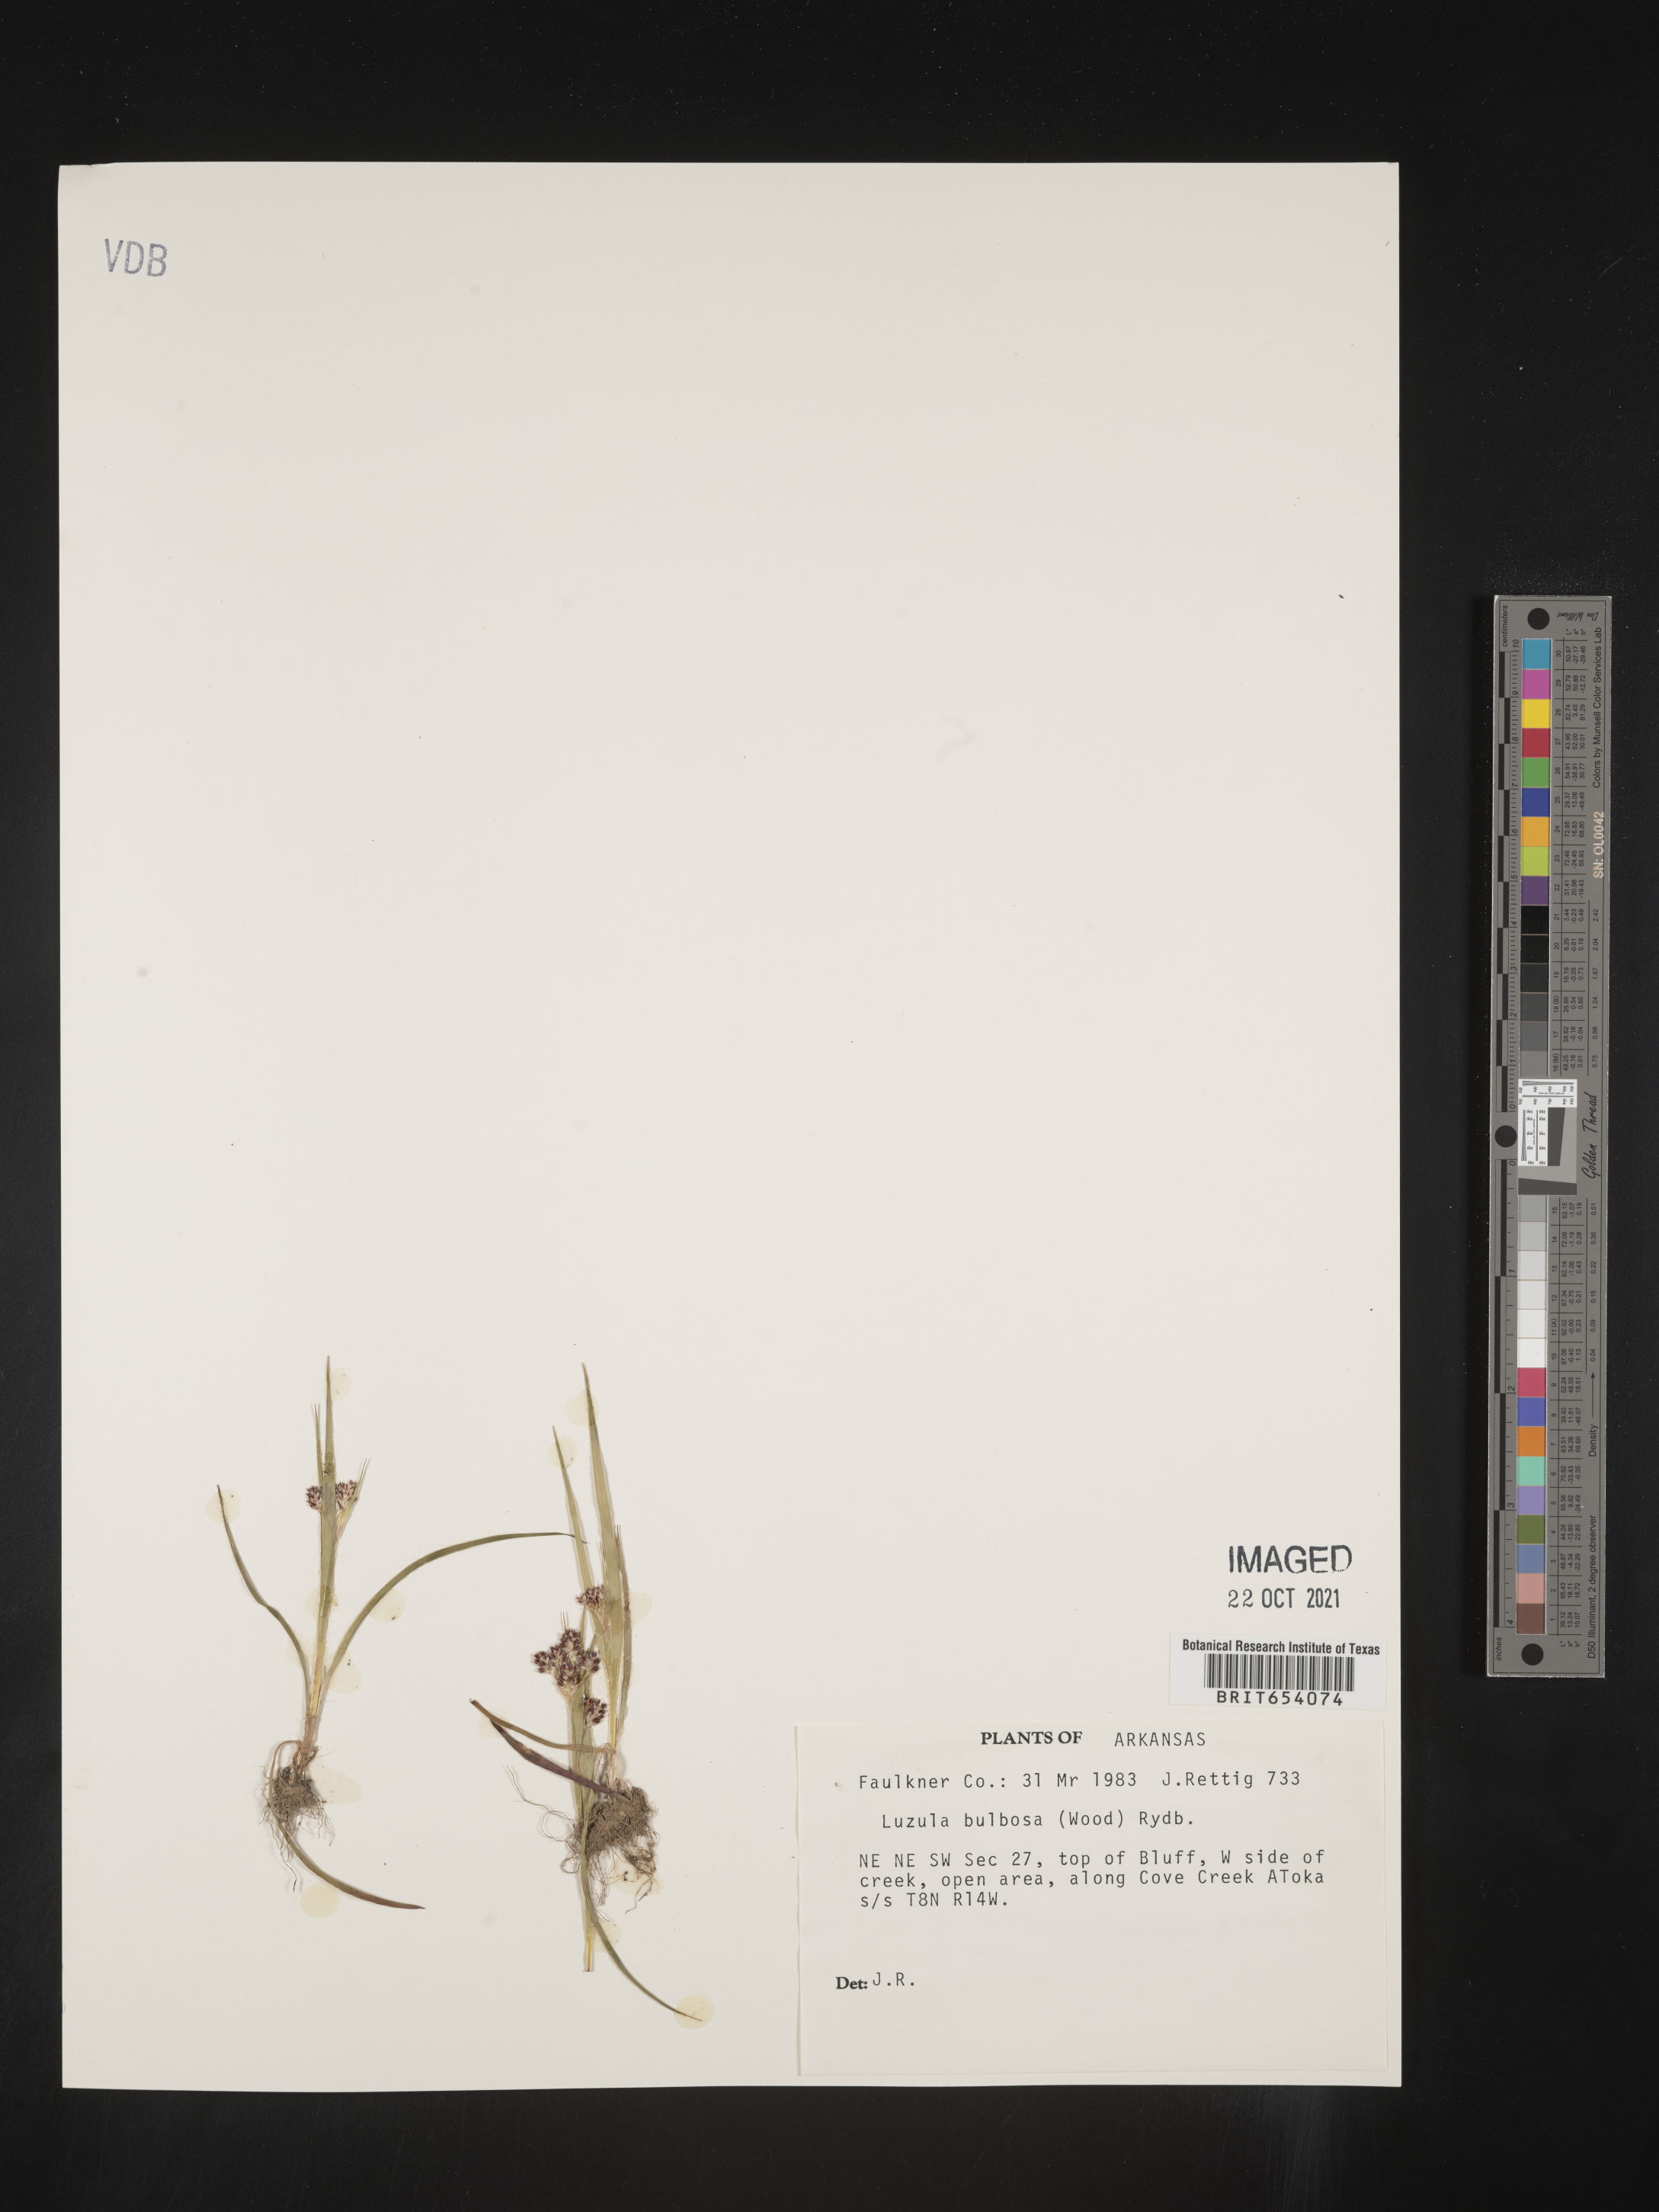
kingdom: Plantae
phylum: Tracheophyta
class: Liliopsida
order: Poales
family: Juncaceae
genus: Luzula
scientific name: Luzula bulbosa
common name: Bulbous woodrush
